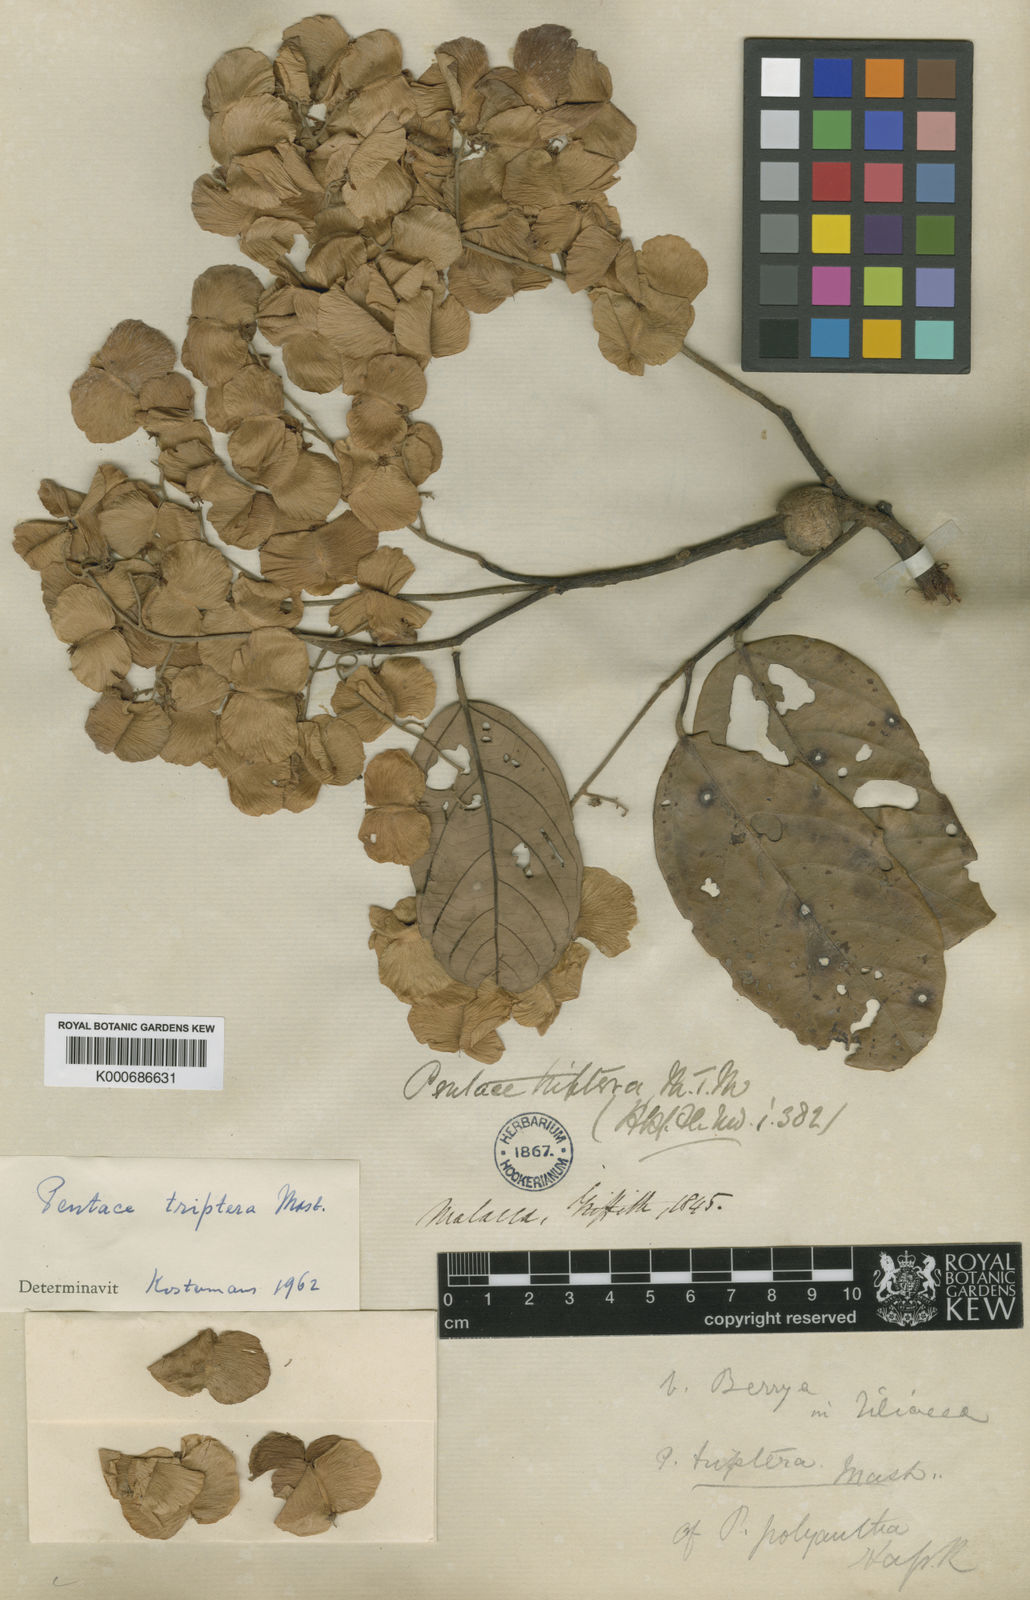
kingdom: Plantae
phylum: Tracheophyta
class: Magnoliopsida
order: Malvales
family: Malvaceae
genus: Pentace
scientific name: Pentace triptera
